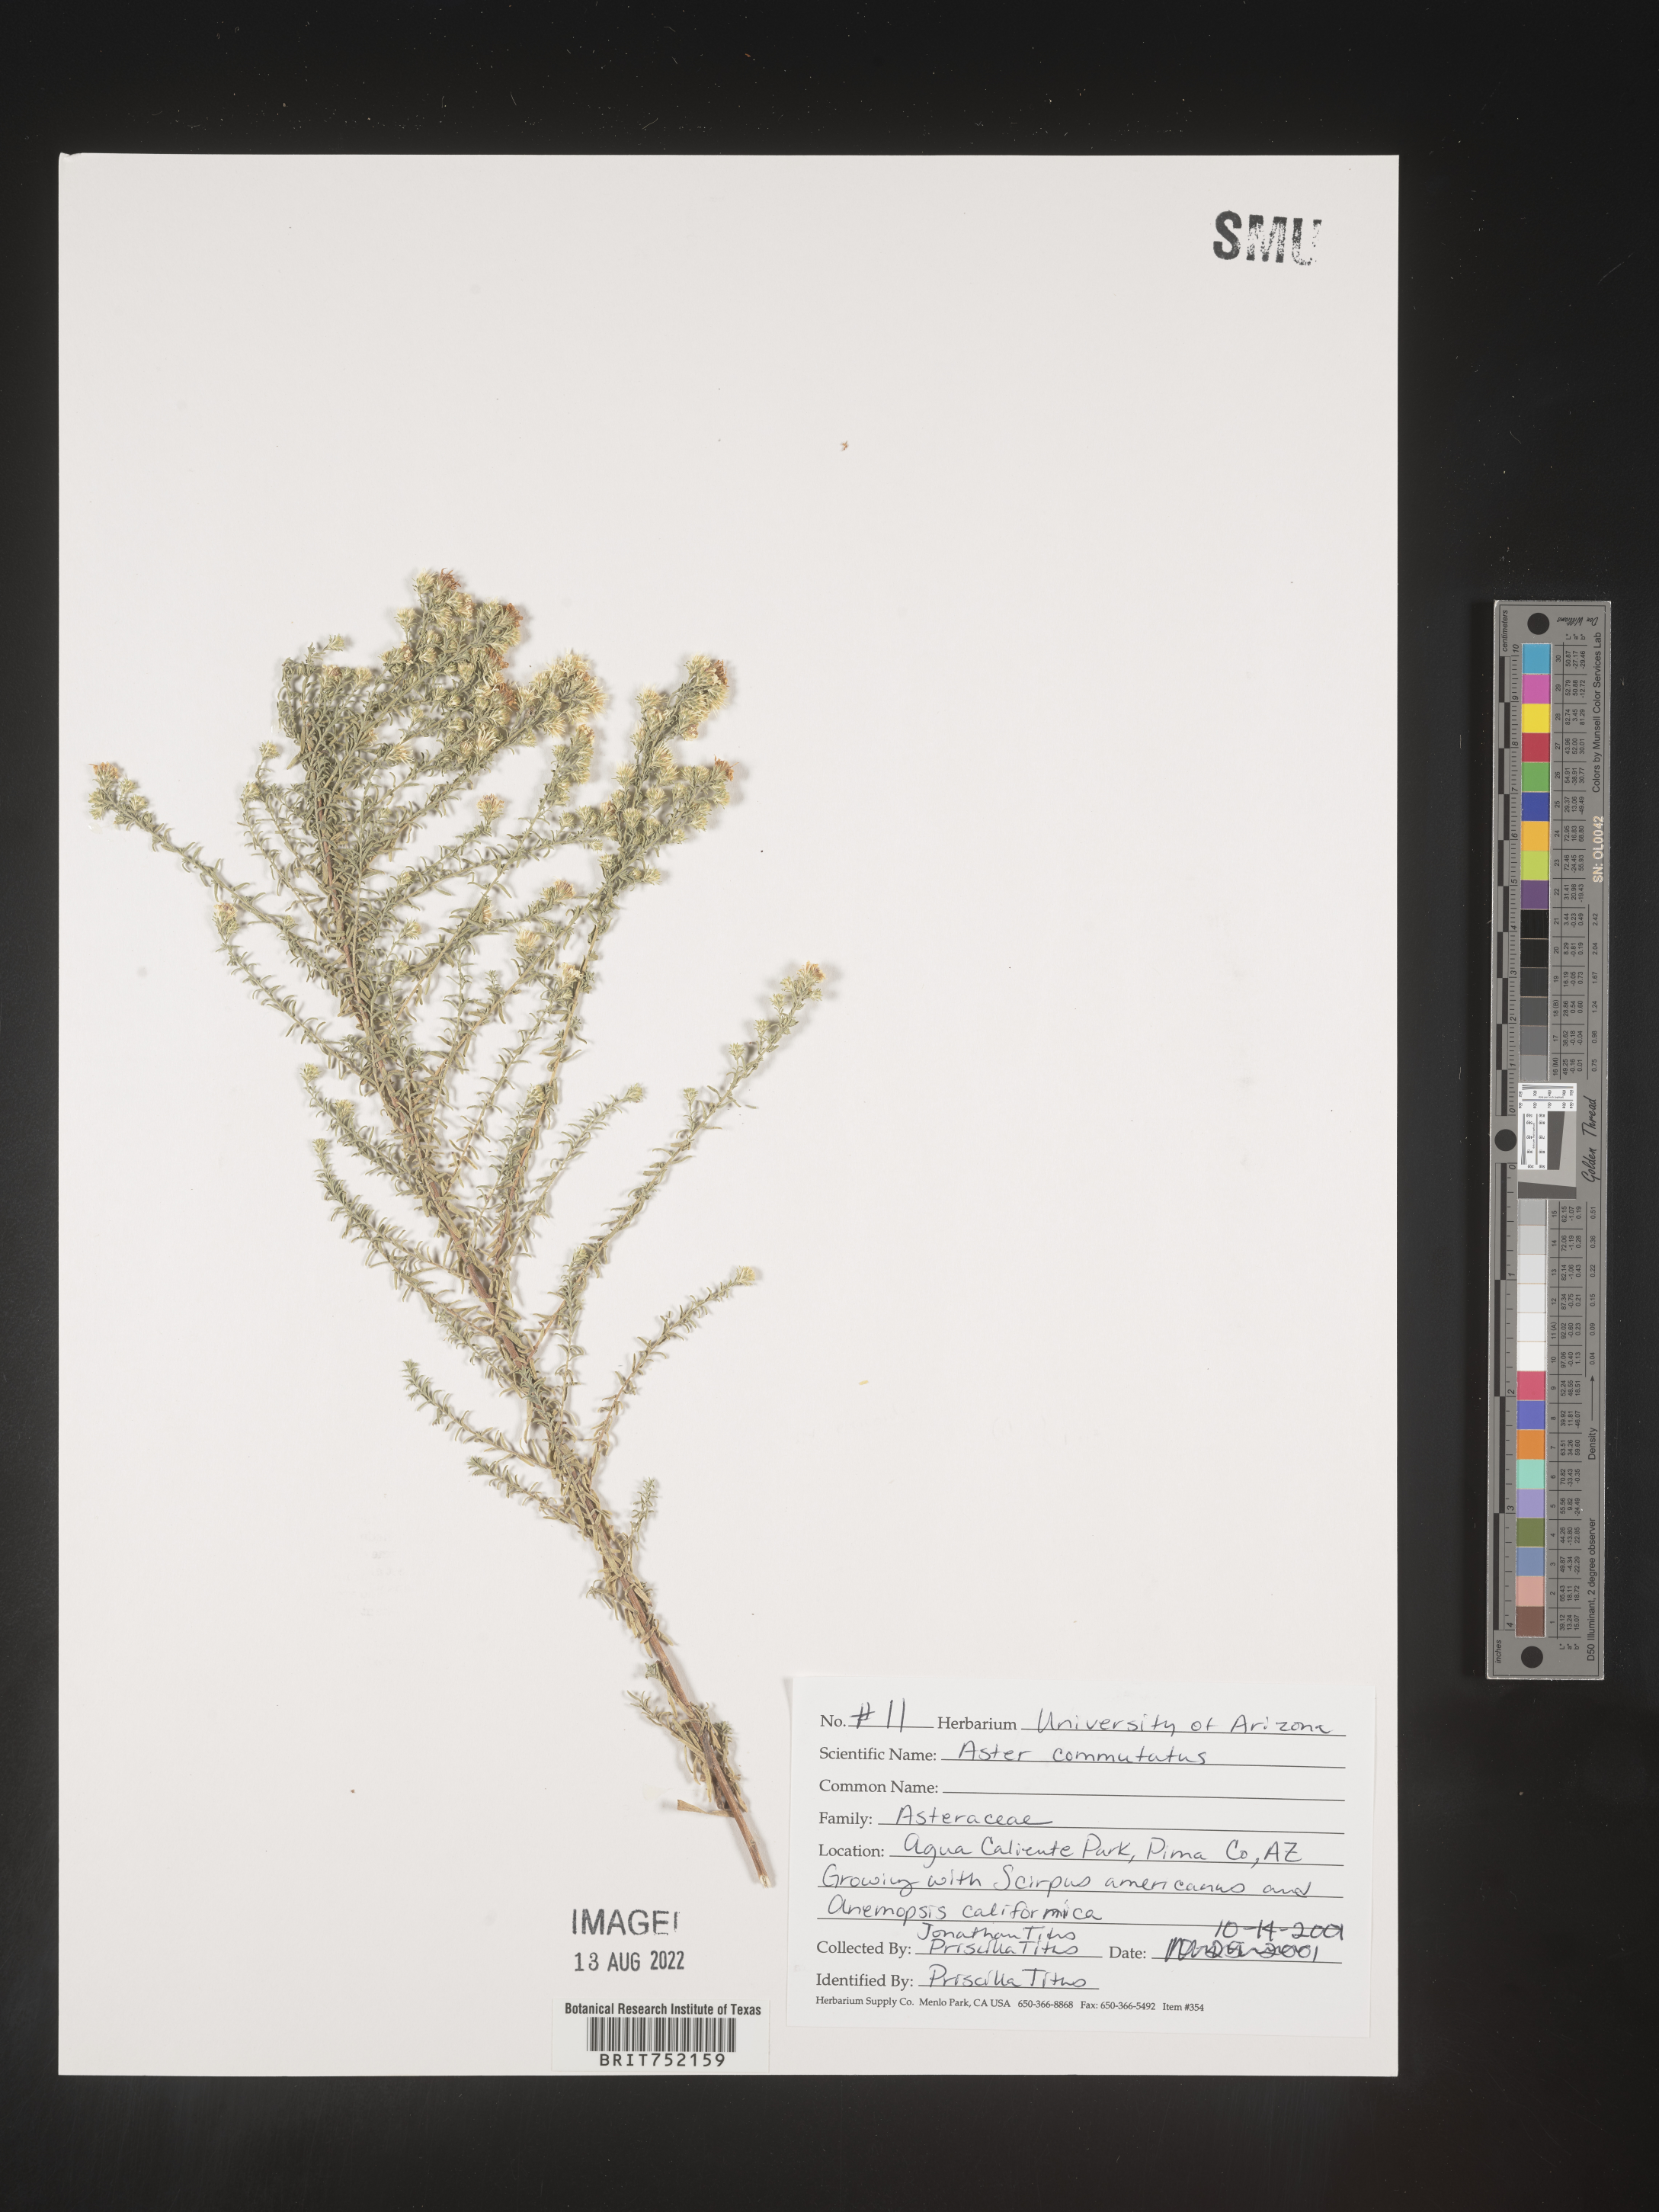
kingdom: Plantae
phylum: Tracheophyta
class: Magnoliopsida
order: Asterales
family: Asteraceae
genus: Symphyotrichum
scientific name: Symphyotrichum ericoides
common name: Heath aster
